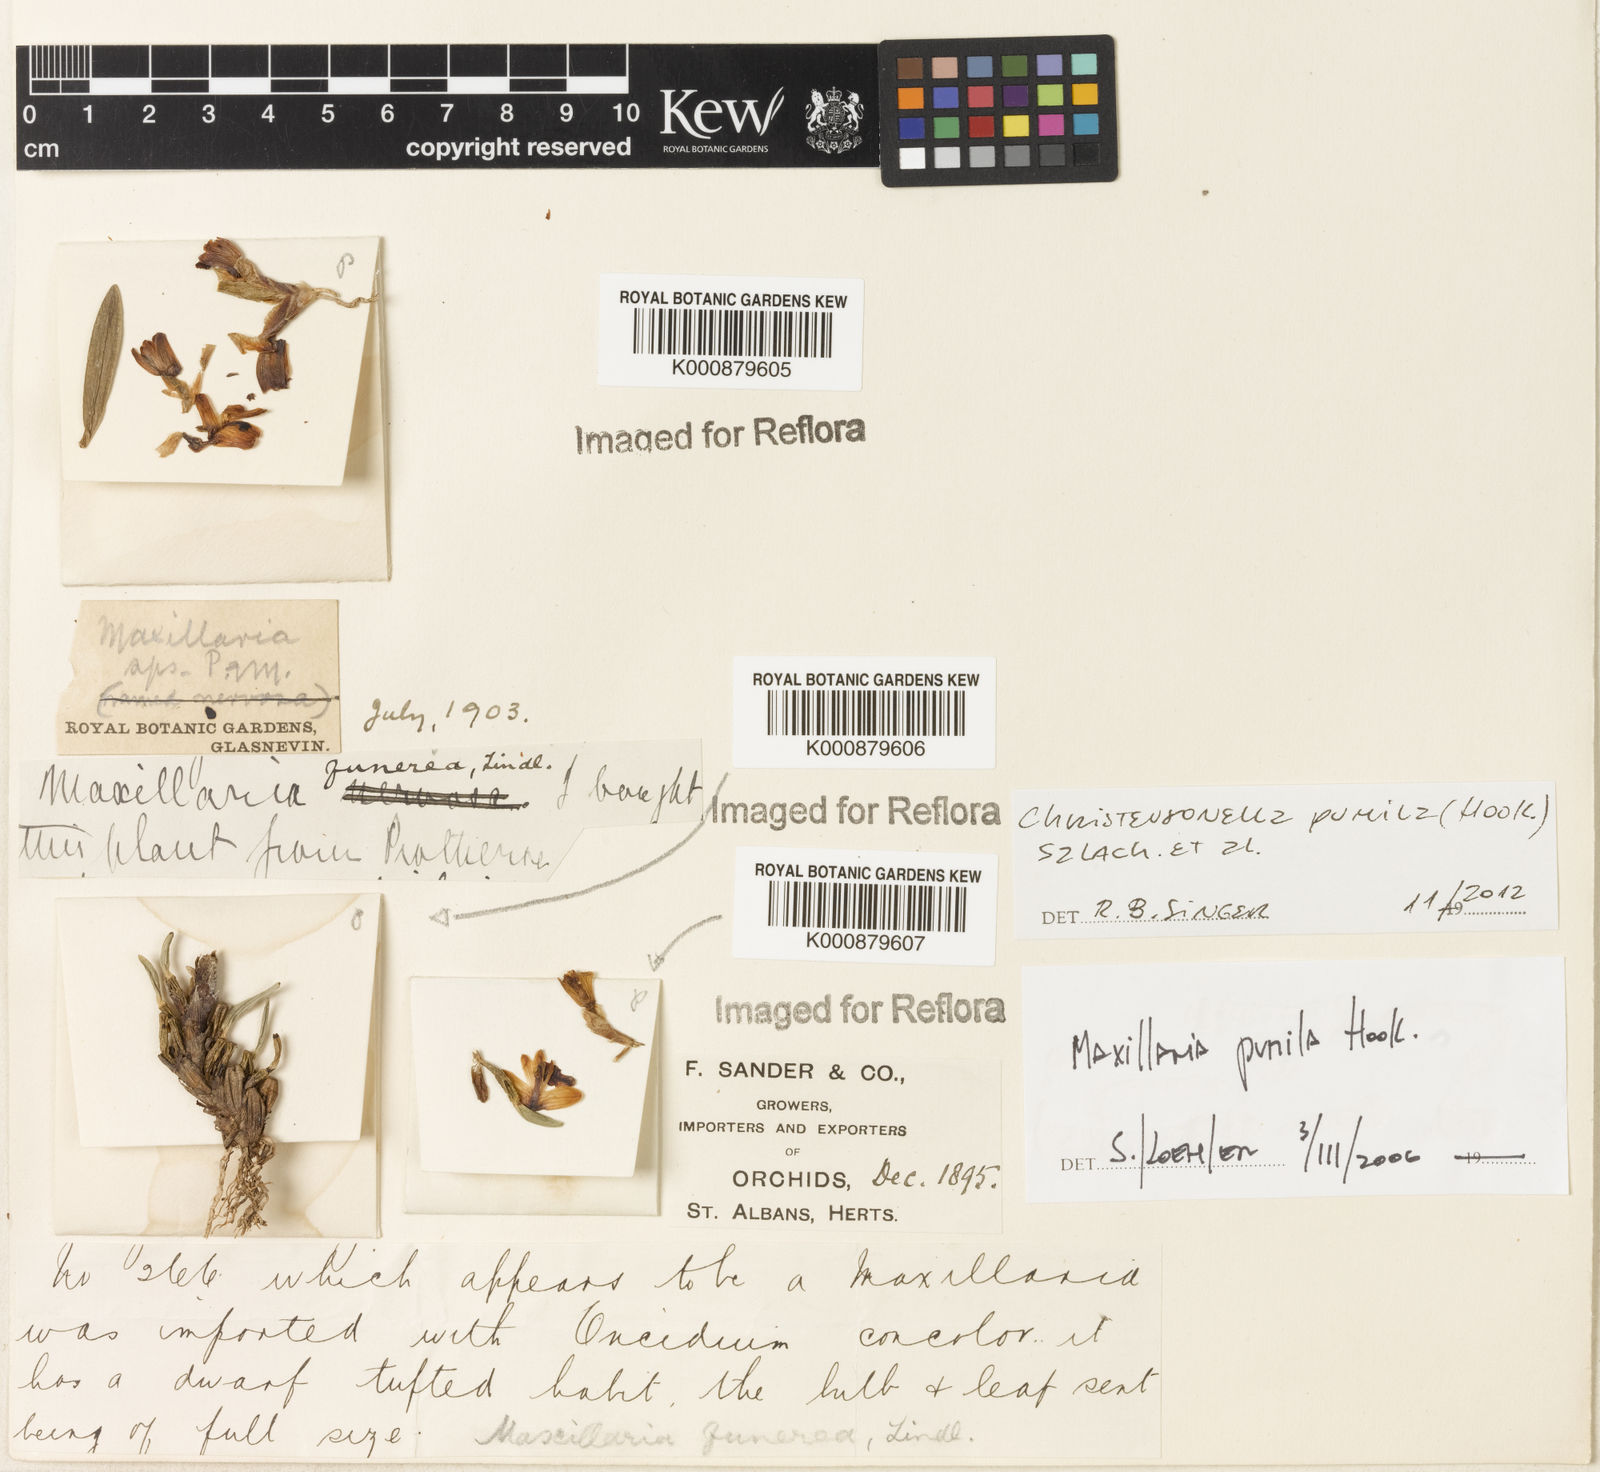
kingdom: Plantae
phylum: Tracheophyta
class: Liliopsida
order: Asparagales
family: Orchidaceae
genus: Maxillaria
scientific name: Maxillaria pumila
